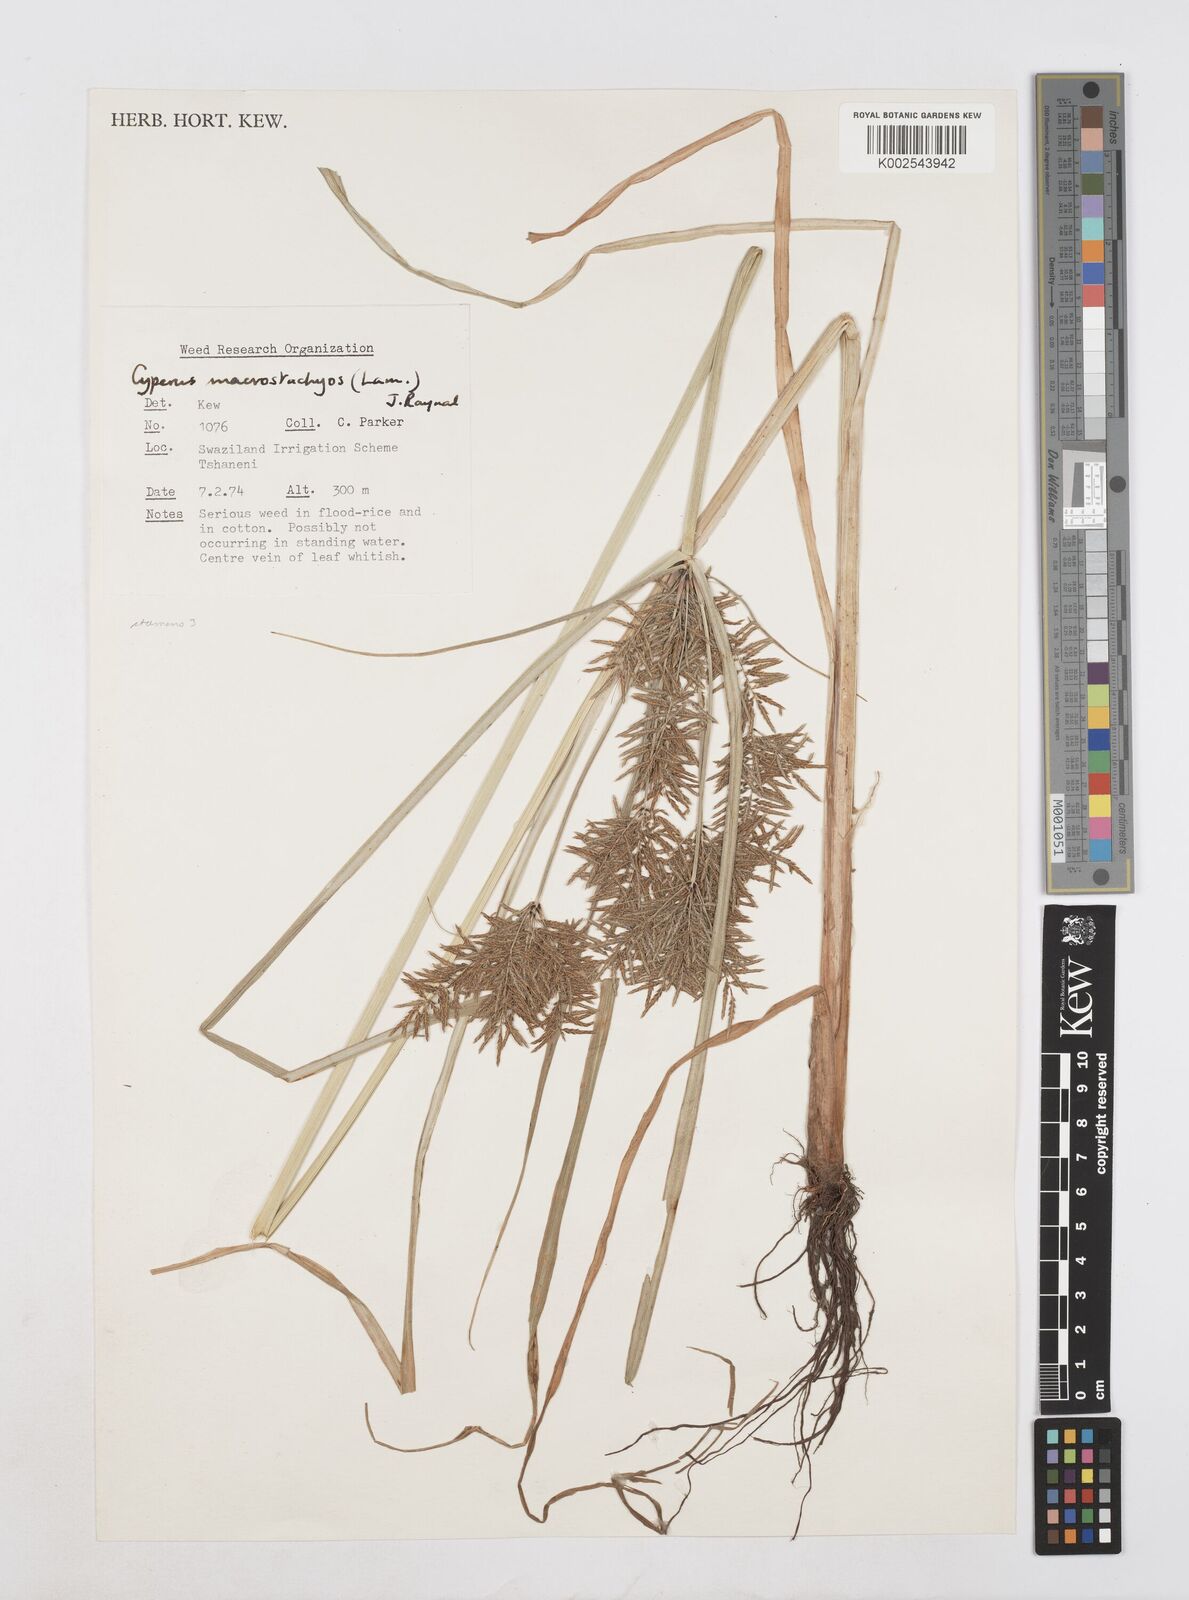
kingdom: Plantae
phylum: Tracheophyta
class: Liliopsida
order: Poales
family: Cyperaceae
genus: Cyperus
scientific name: Cyperus macrostachyos
